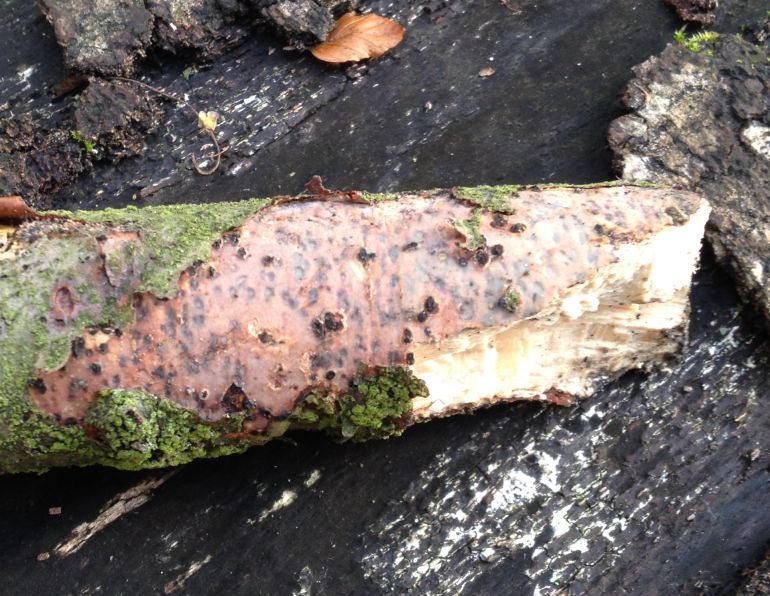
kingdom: Fungi
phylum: Basidiomycota
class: Agaricomycetes
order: Corticiales
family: Vuilleminiaceae
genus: Vuilleminia
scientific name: Vuilleminia comedens
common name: almindelig barksprænger
